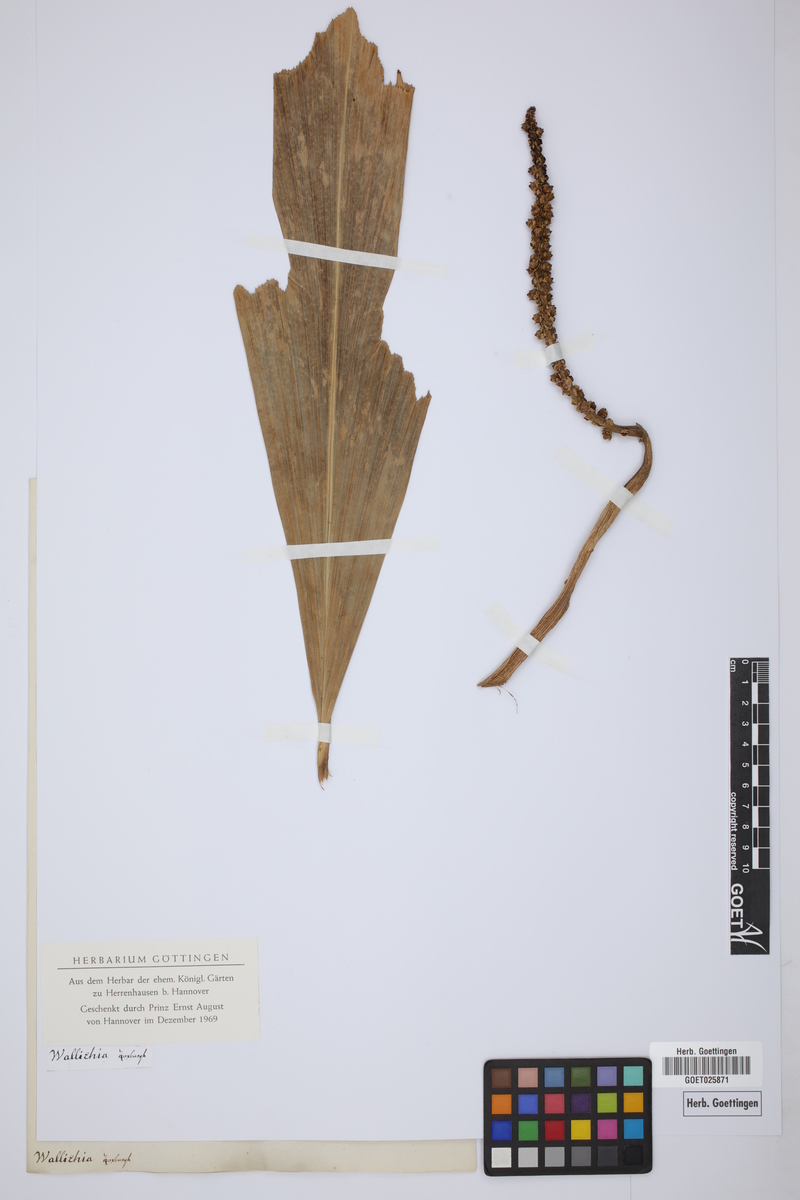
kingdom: Plantae
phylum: Tracheophyta
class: Liliopsida
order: Arecales
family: Arecaceae
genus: Wallichia
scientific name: Wallichia oblongifolia
